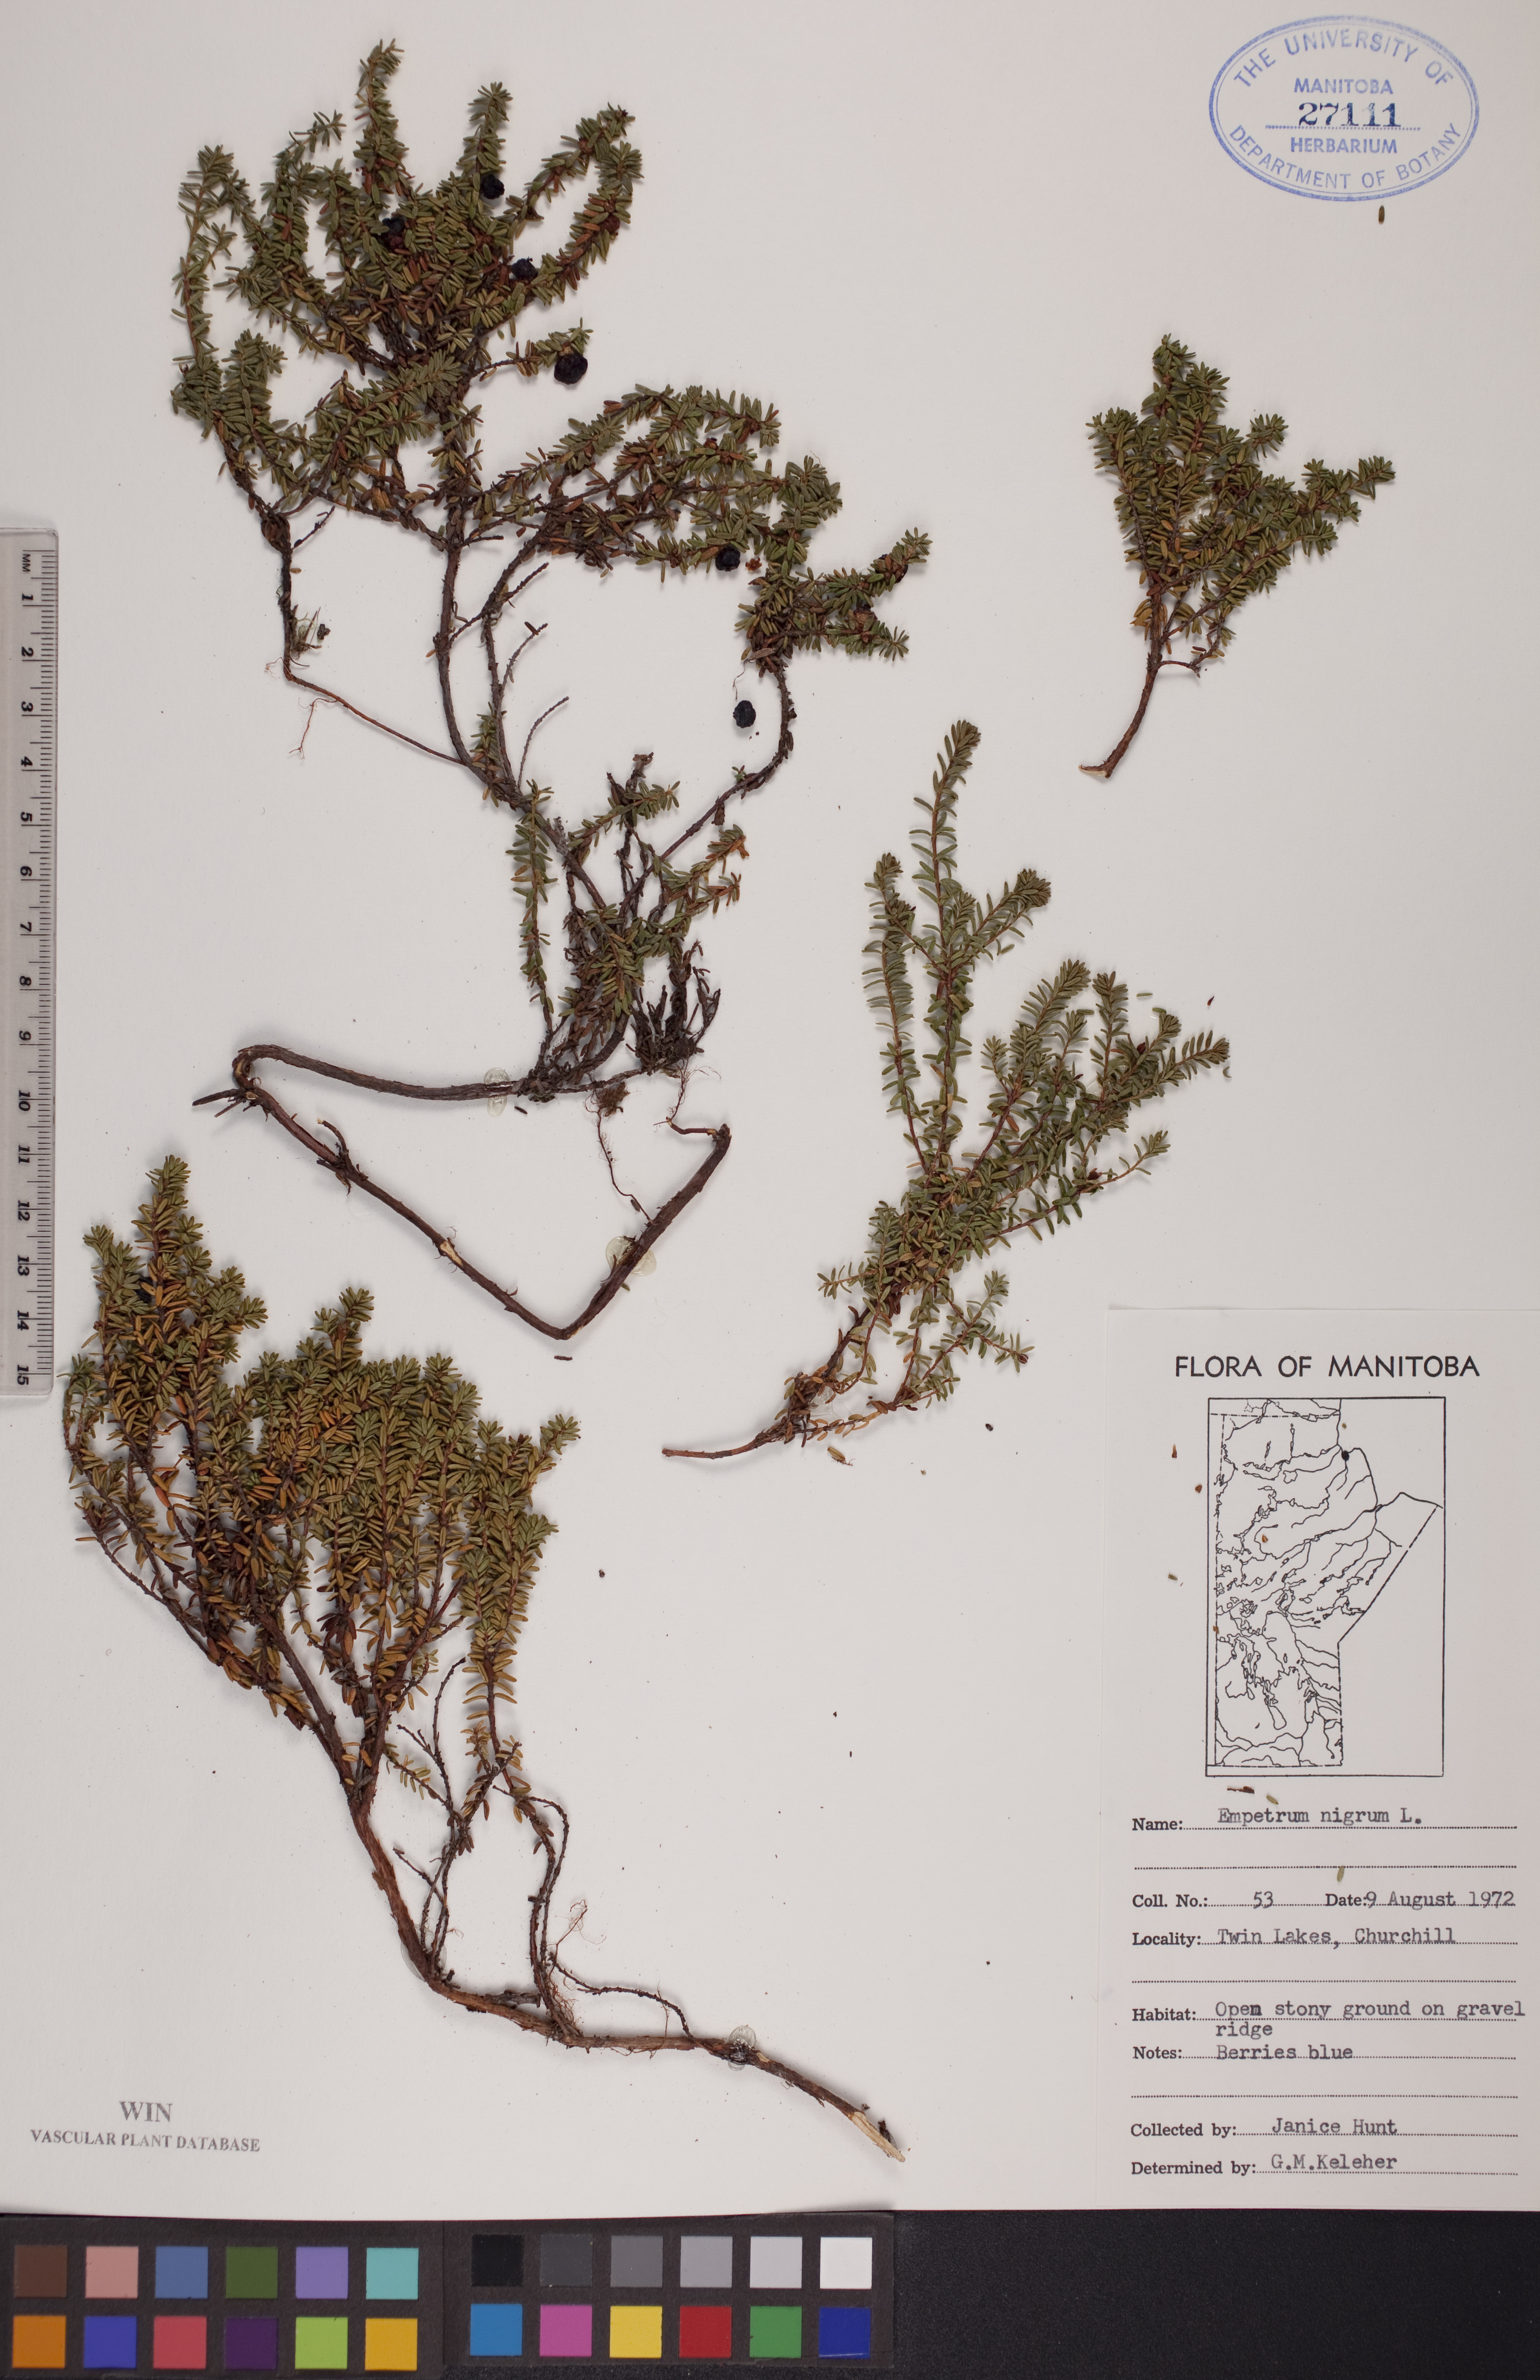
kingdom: Plantae
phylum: Tracheophyta
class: Magnoliopsida
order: Ericales
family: Ericaceae
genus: Empetrum
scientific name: Empetrum nigrum
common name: Black crowberry
